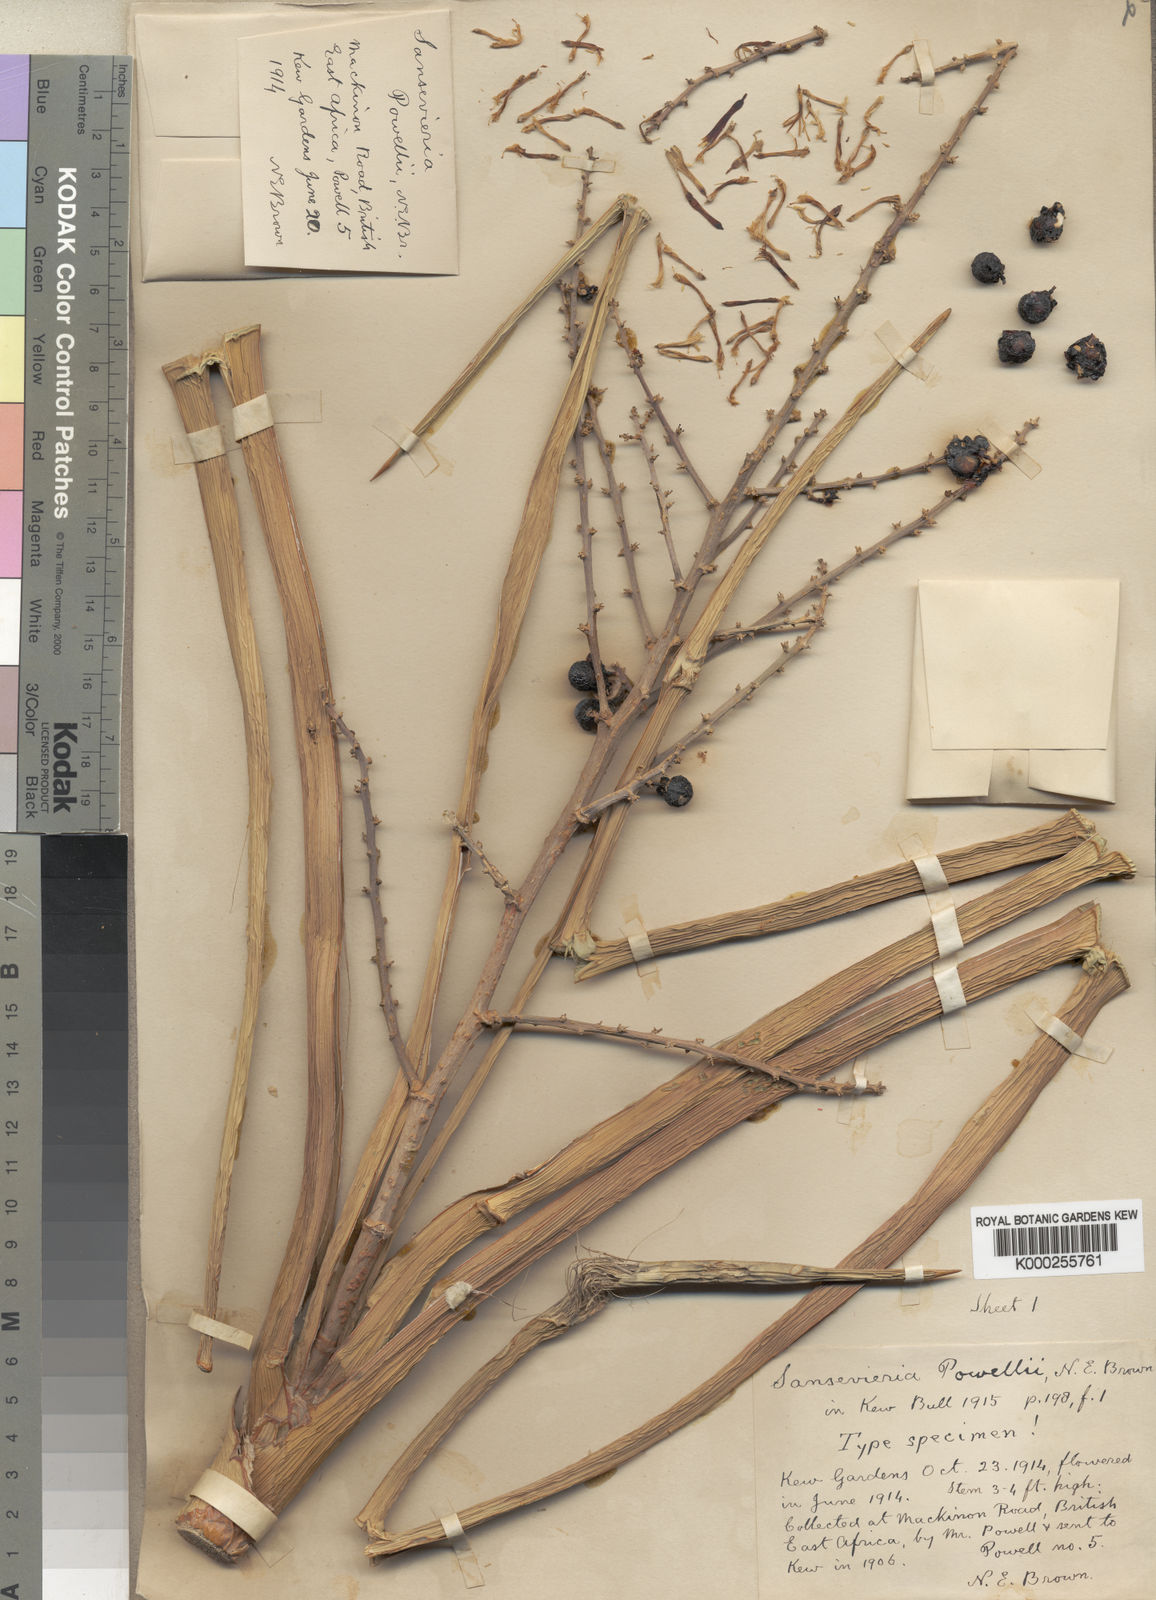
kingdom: Plantae
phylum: Tracheophyta
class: Liliopsida
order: Asparagales
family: Asparagaceae
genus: Dracaena
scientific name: Dracaena powellii
